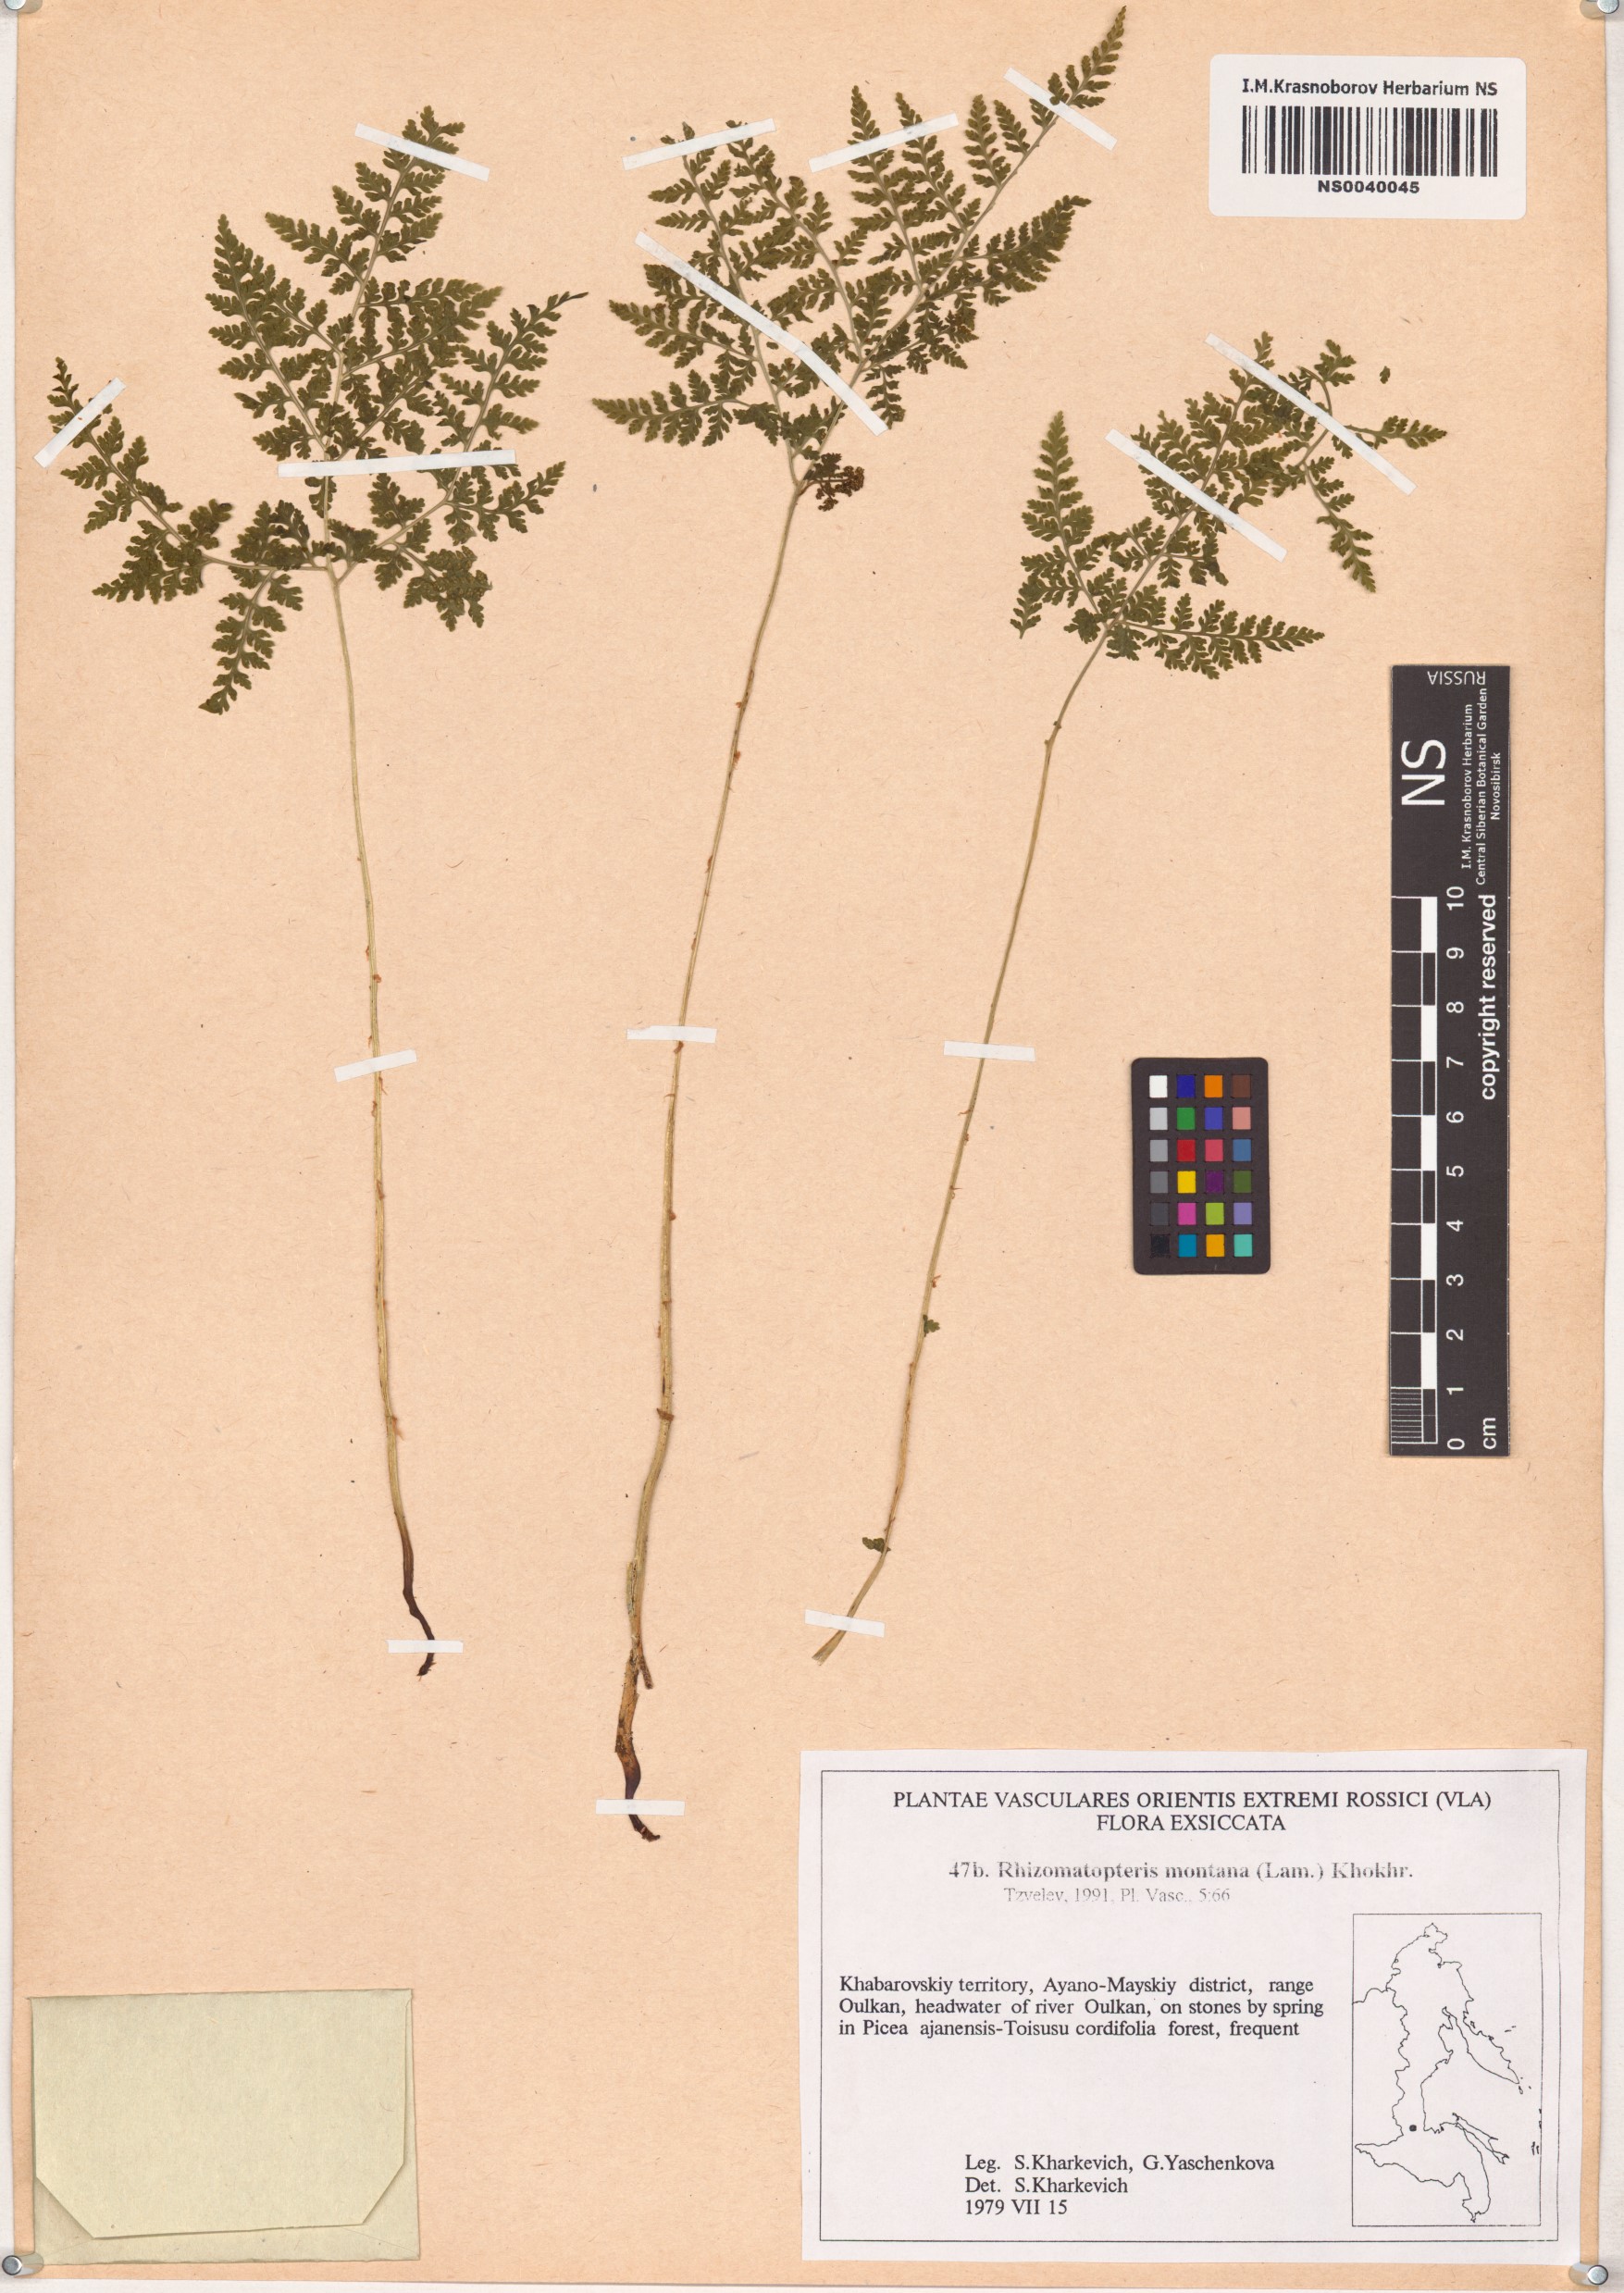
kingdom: Plantae
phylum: Tracheophyta
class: Polypodiopsida
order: Polypodiales
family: Cystopteridaceae
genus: Cystopteris
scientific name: Cystopteris montana
